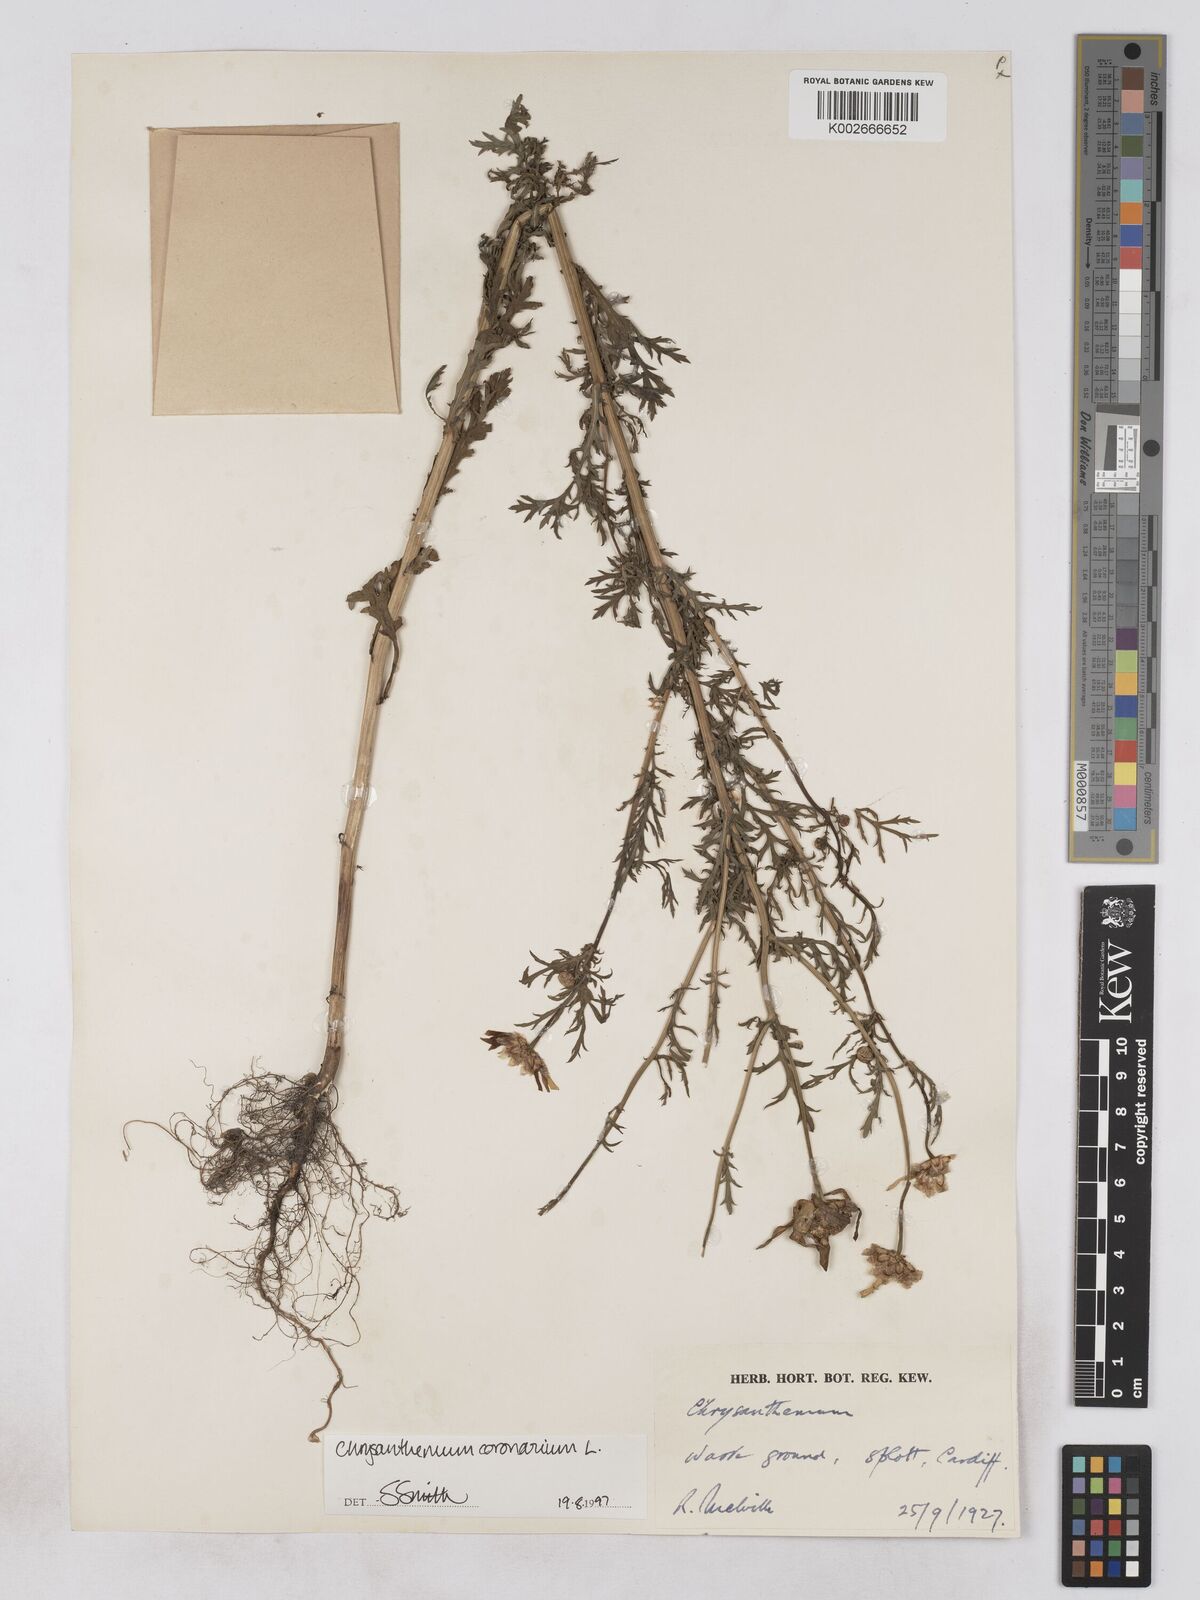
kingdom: Plantae
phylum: Tracheophyta
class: Magnoliopsida
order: Asterales
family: Asteraceae
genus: Glebionis
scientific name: Glebionis coronaria
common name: Crowndaisy
